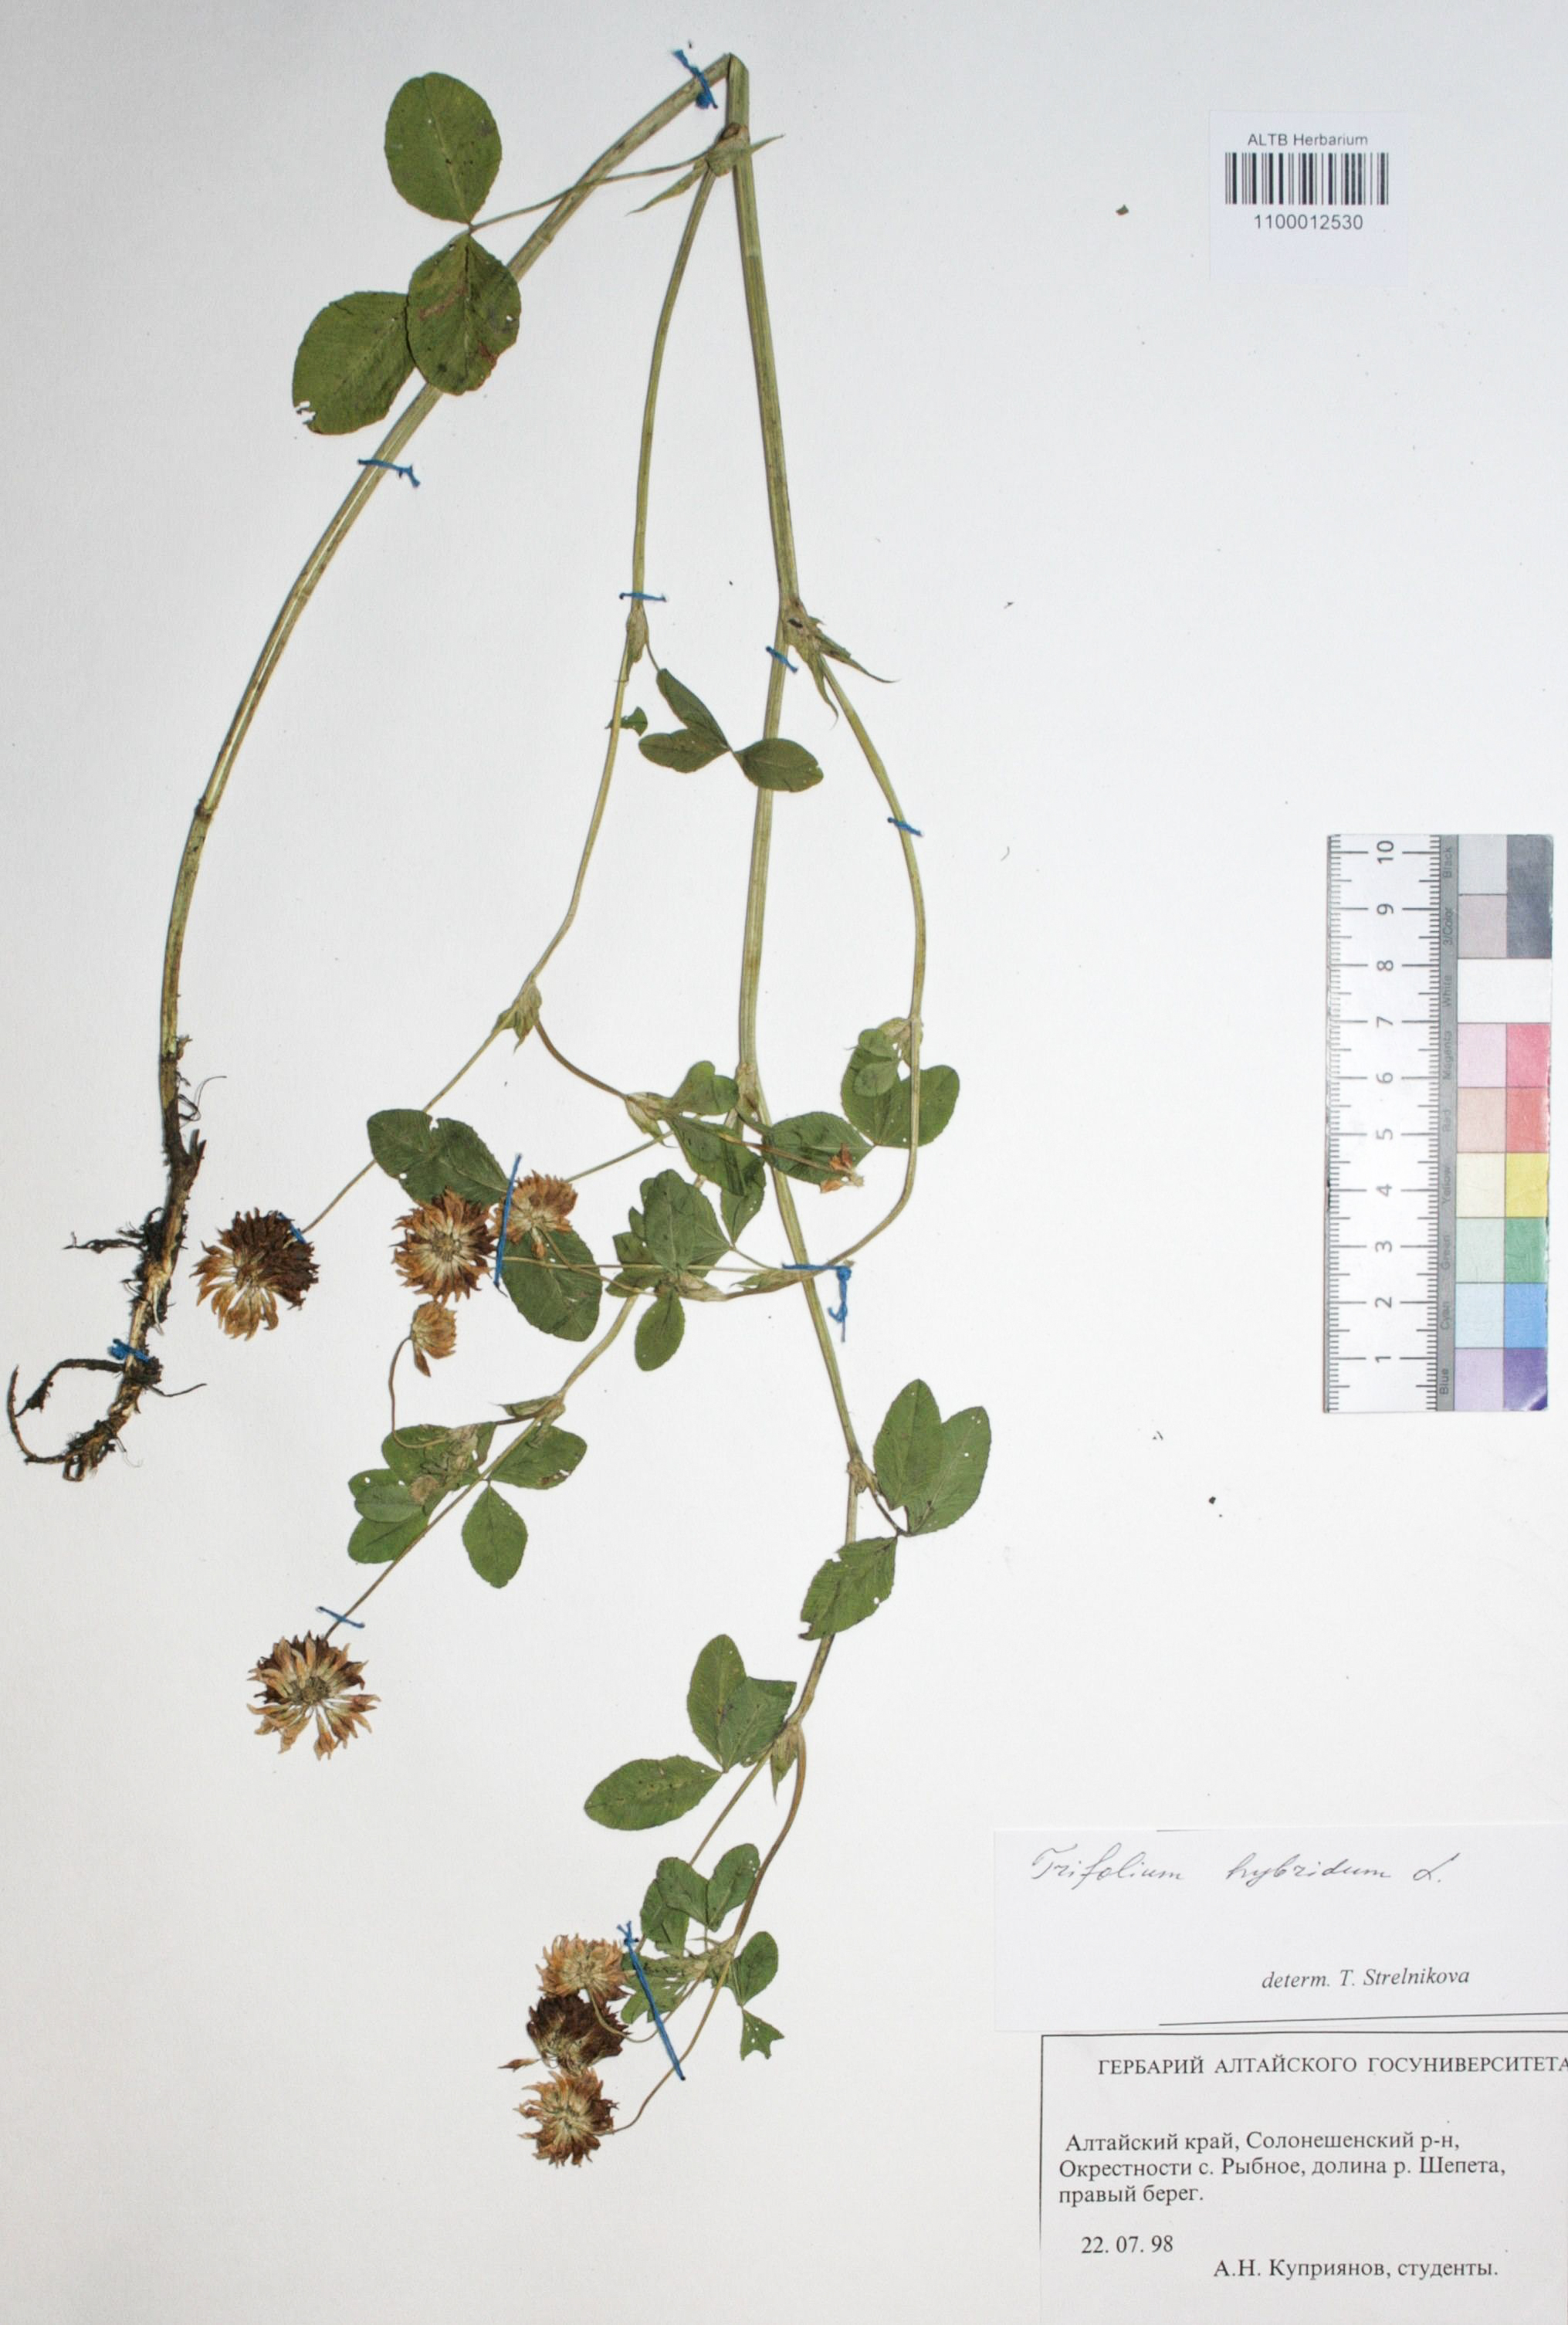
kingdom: Plantae
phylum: Tracheophyta
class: Magnoliopsida
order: Fabales
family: Fabaceae
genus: Trifolium
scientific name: Trifolium hybridum
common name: Alsike clover
